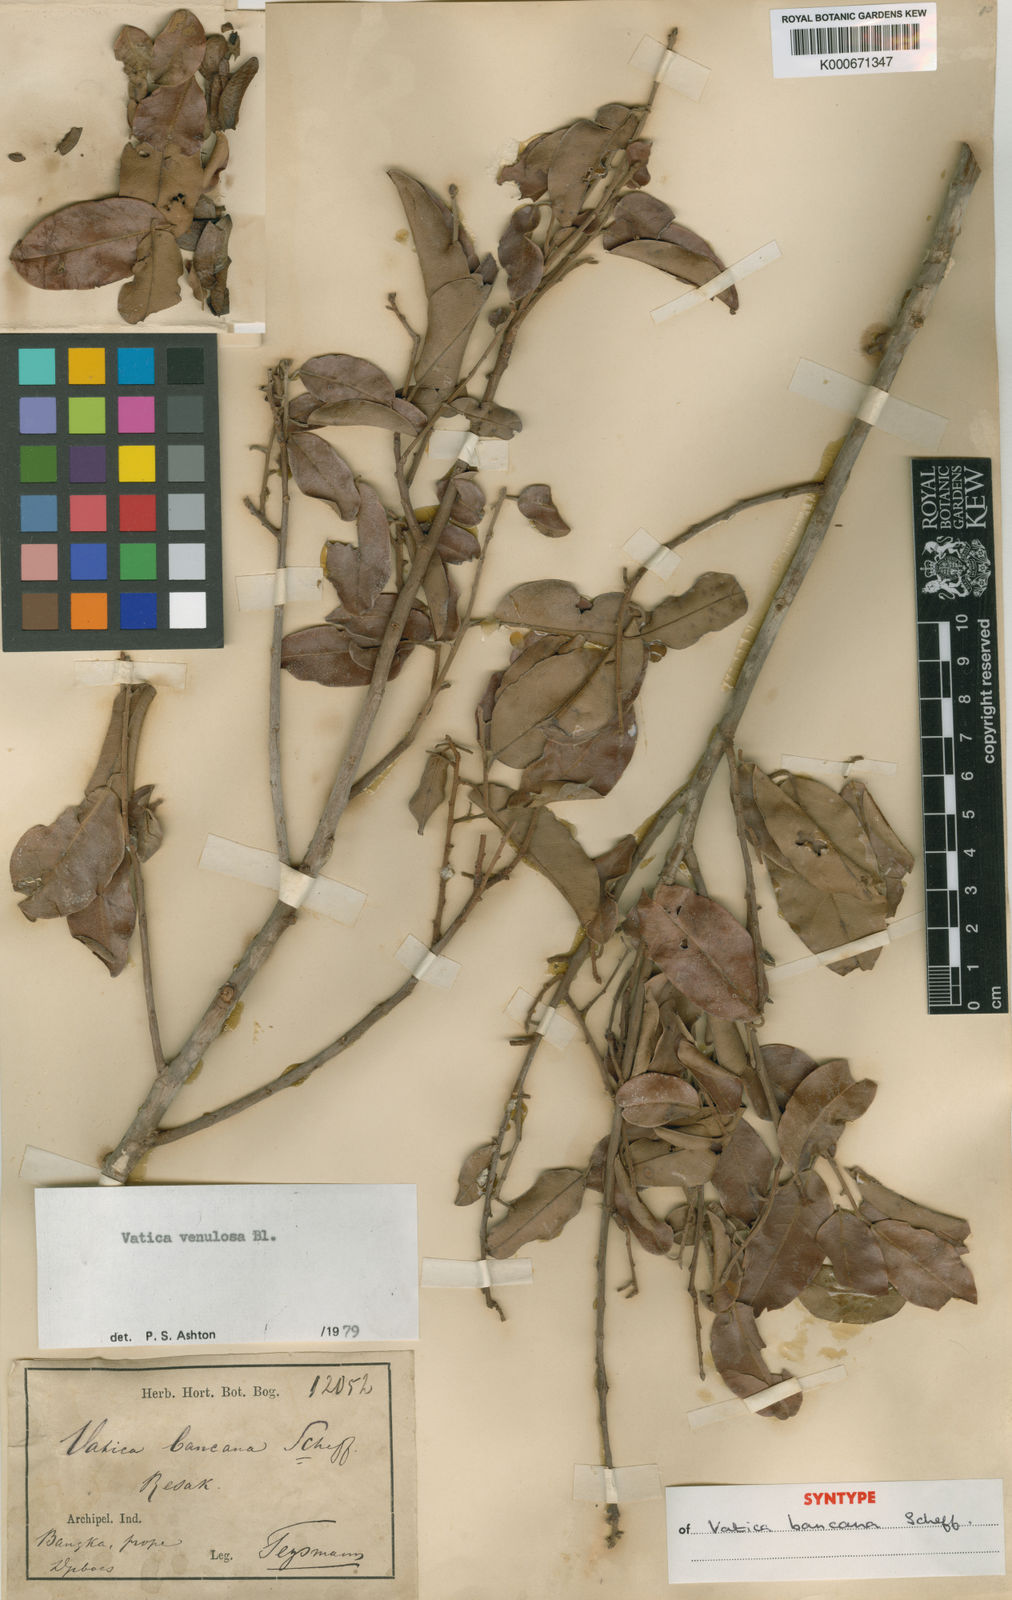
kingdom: Plantae
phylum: Tracheophyta
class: Magnoliopsida
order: Malvales
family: Dipterocarpaceae
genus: Vatica
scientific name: Vatica venulosa
